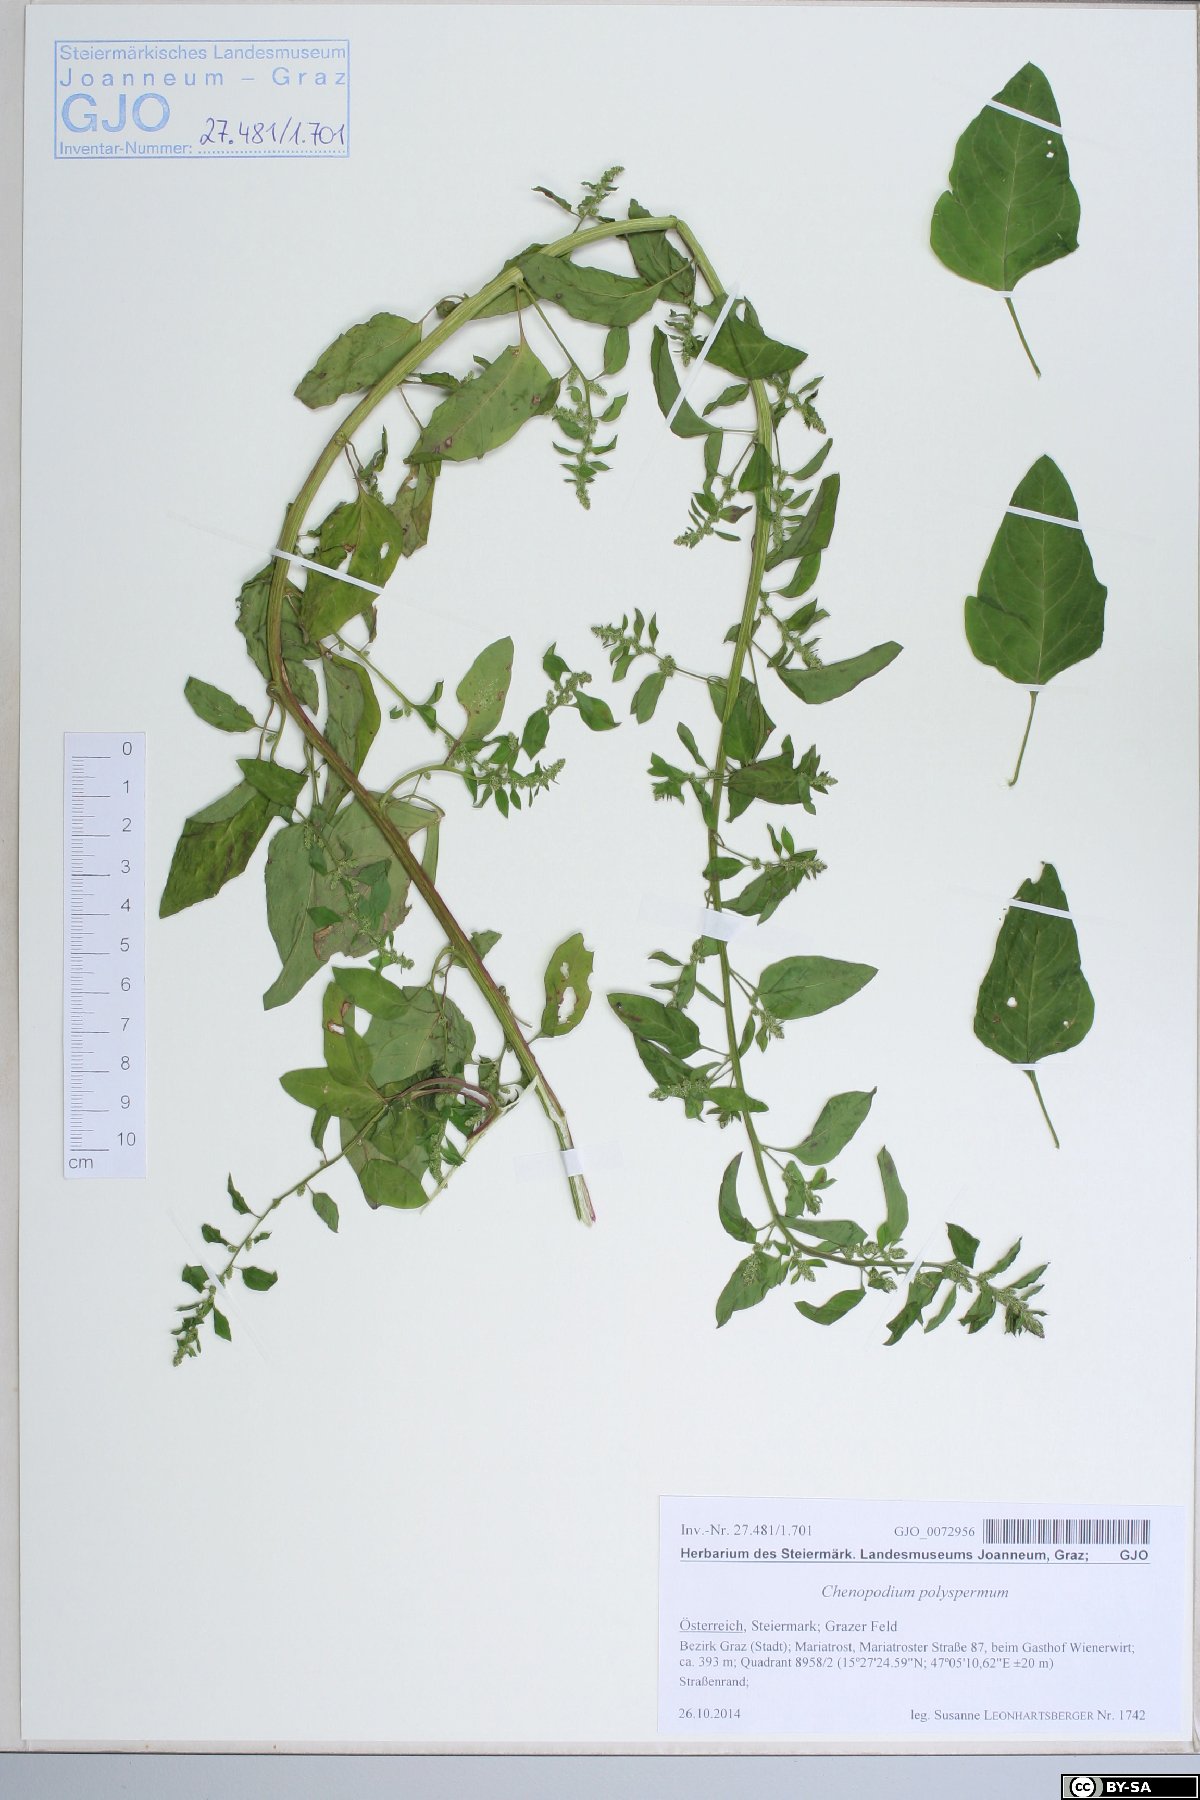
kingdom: Plantae
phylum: Tracheophyta
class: Magnoliopsida
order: Caryophyllales
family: Amaranthaceae
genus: Lipandra
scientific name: Lipandra polysperma
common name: Many-seed goosefoot
